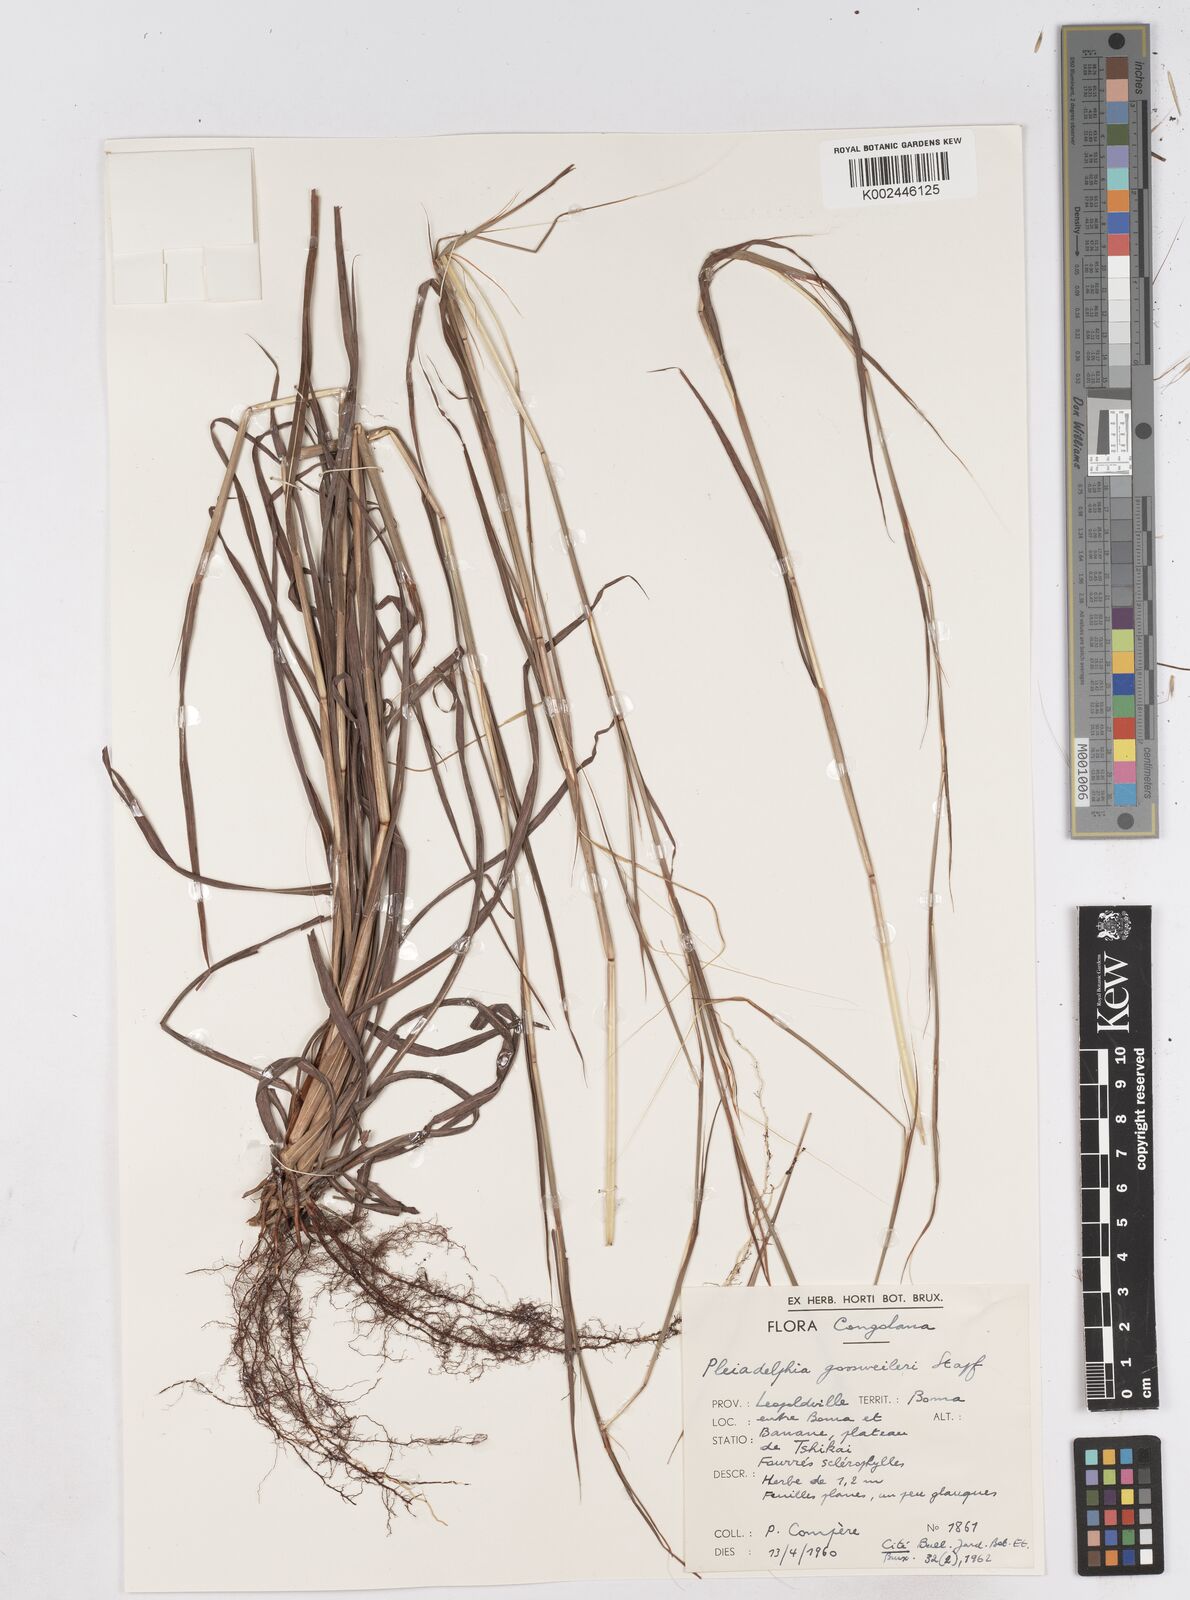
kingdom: Plantae
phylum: Tracheophyta
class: Liliopsida
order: Poales
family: Poaceae
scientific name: Poaceae
